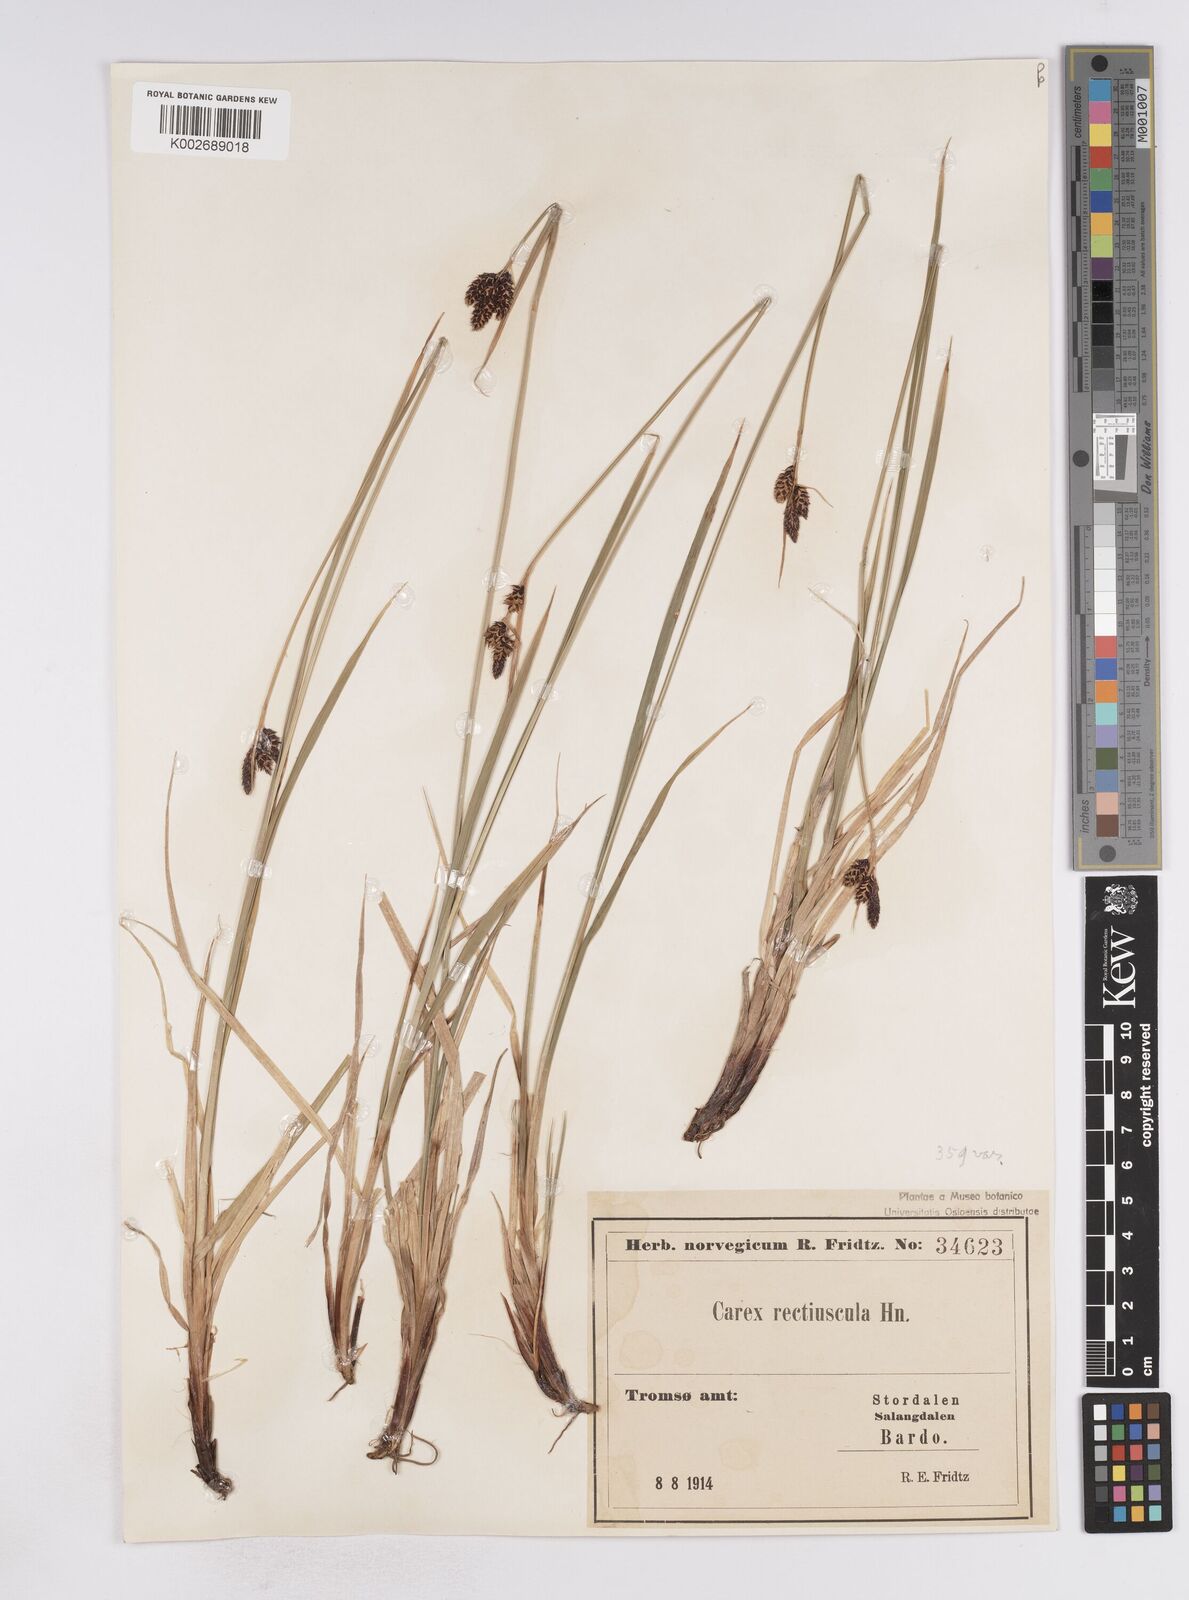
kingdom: Plantae
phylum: Tracheophyta
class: Liliopsida
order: Poales
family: Cyperaceae
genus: Carex
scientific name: Carex atrata
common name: Black alpine sedge
